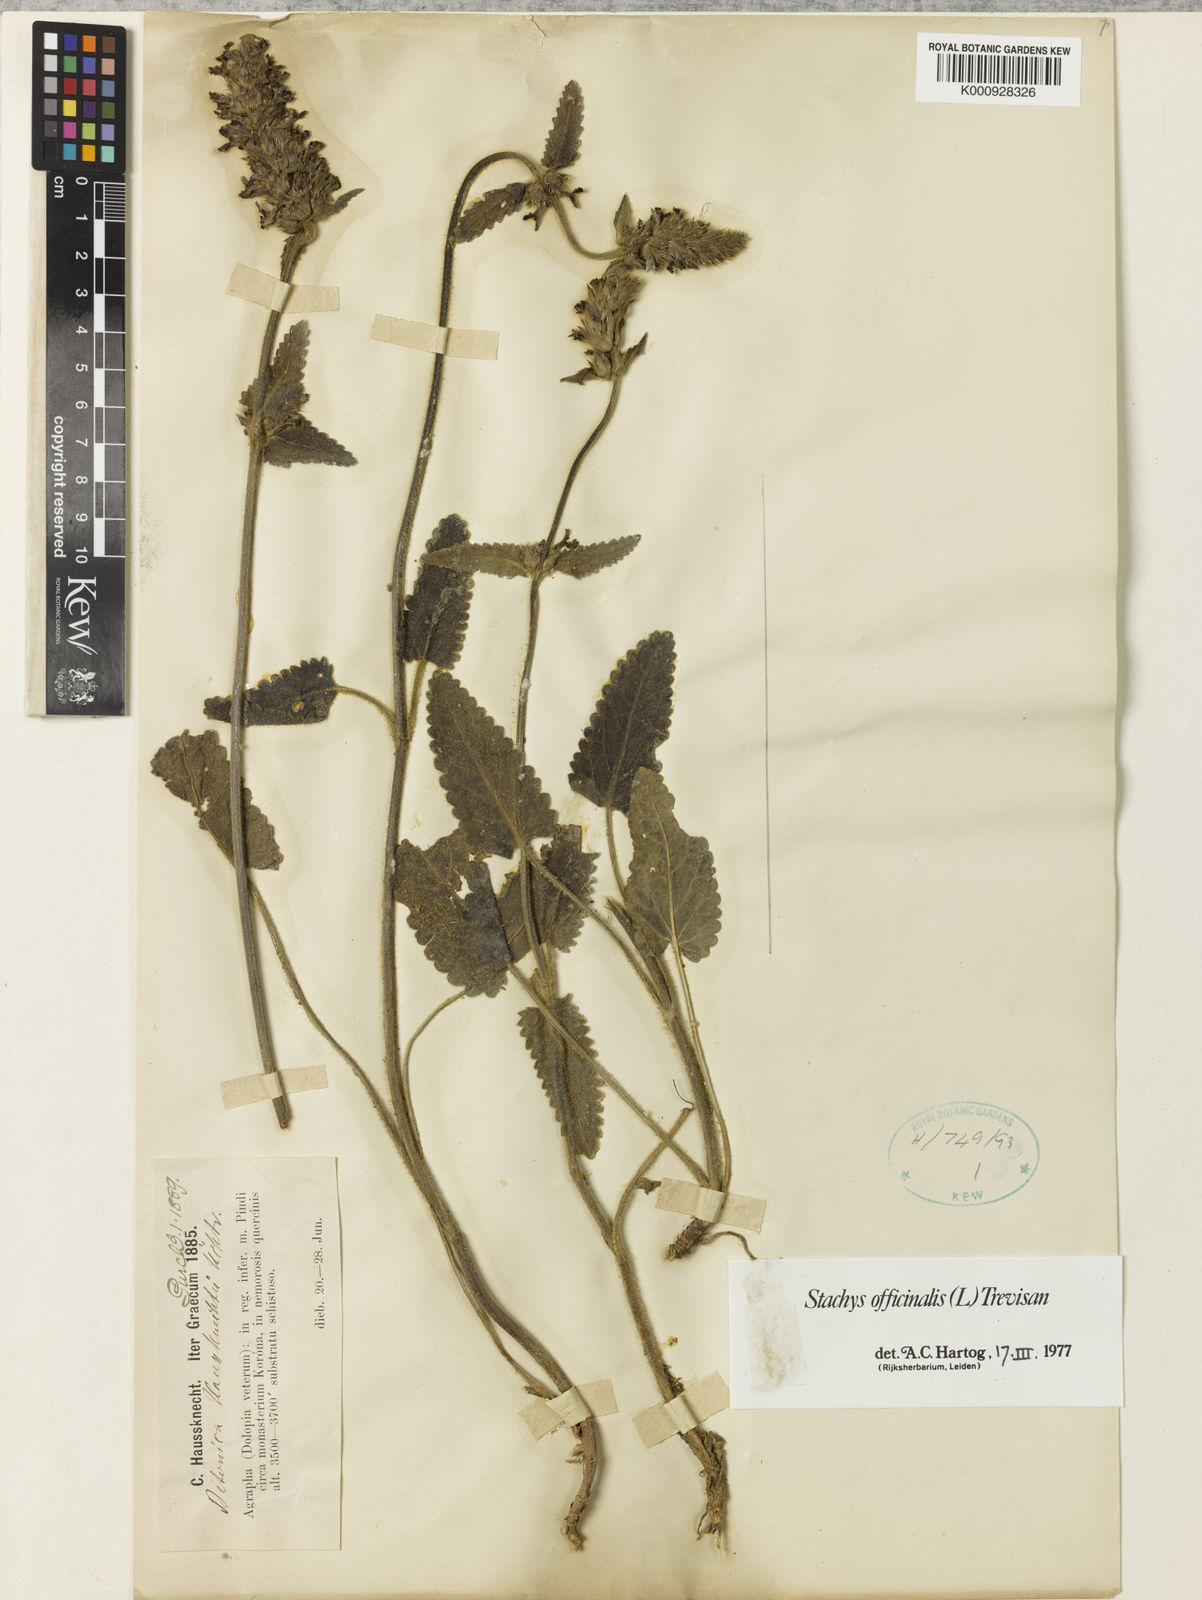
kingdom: Plantae
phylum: Tracheophyta
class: Magnoliopsida
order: Lamiales
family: Lamiaceae
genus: Betonica
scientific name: Betonica officinalis
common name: Bishop's-wort
